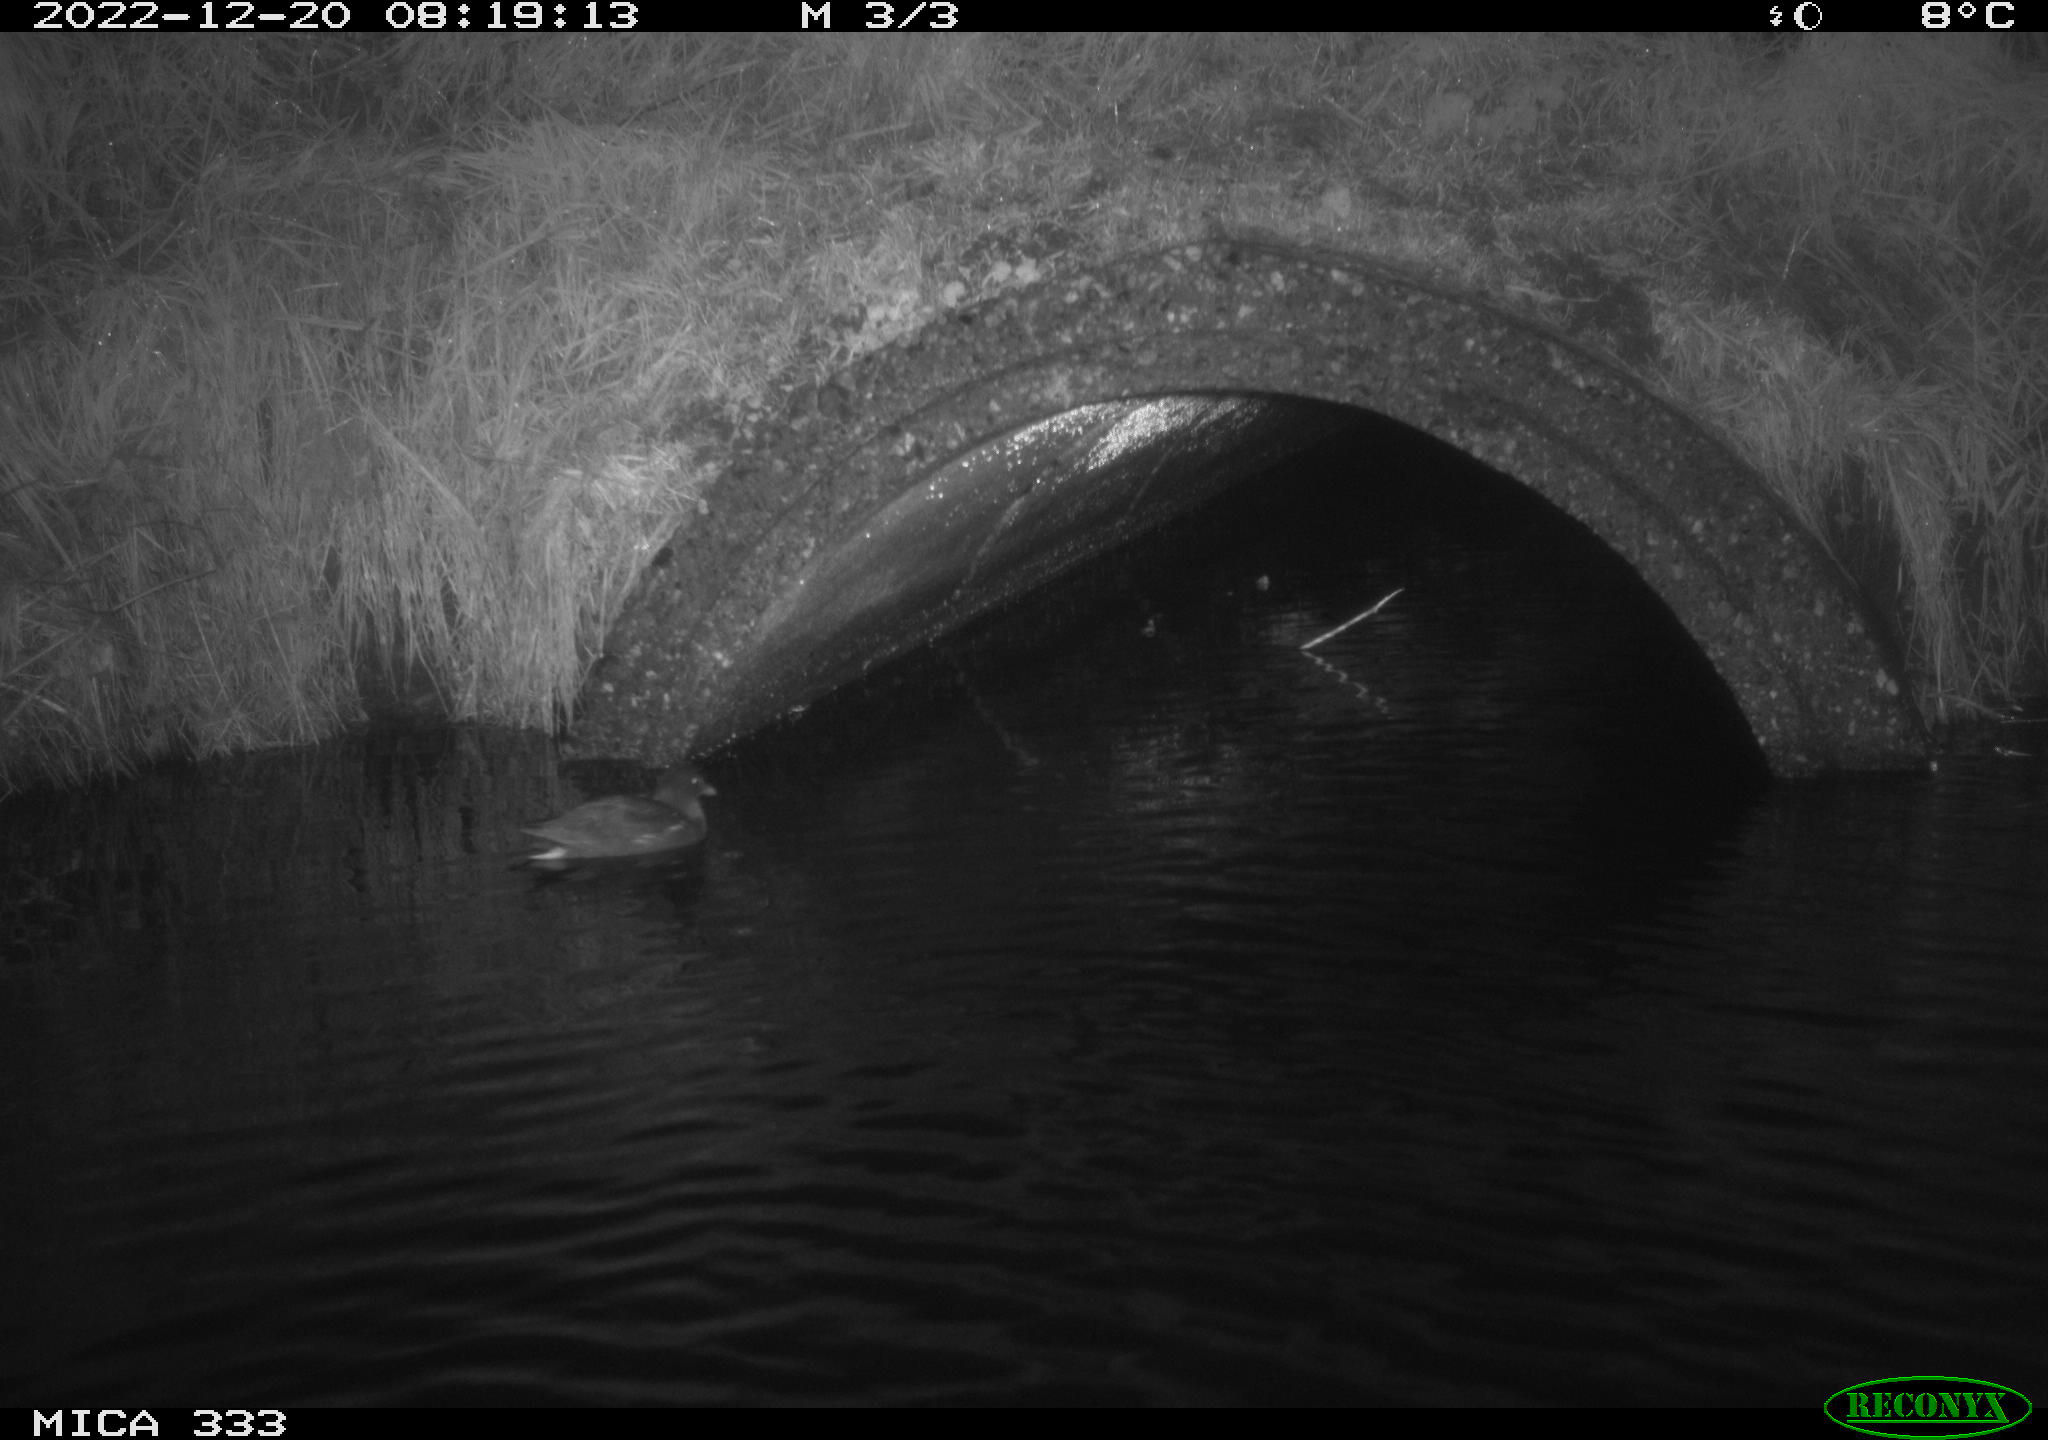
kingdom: Animalia
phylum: Chordata
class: Aves
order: Gruiformes
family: Rallidae
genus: Gallinula
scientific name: Gallinula chloropus
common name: Common moorhen
